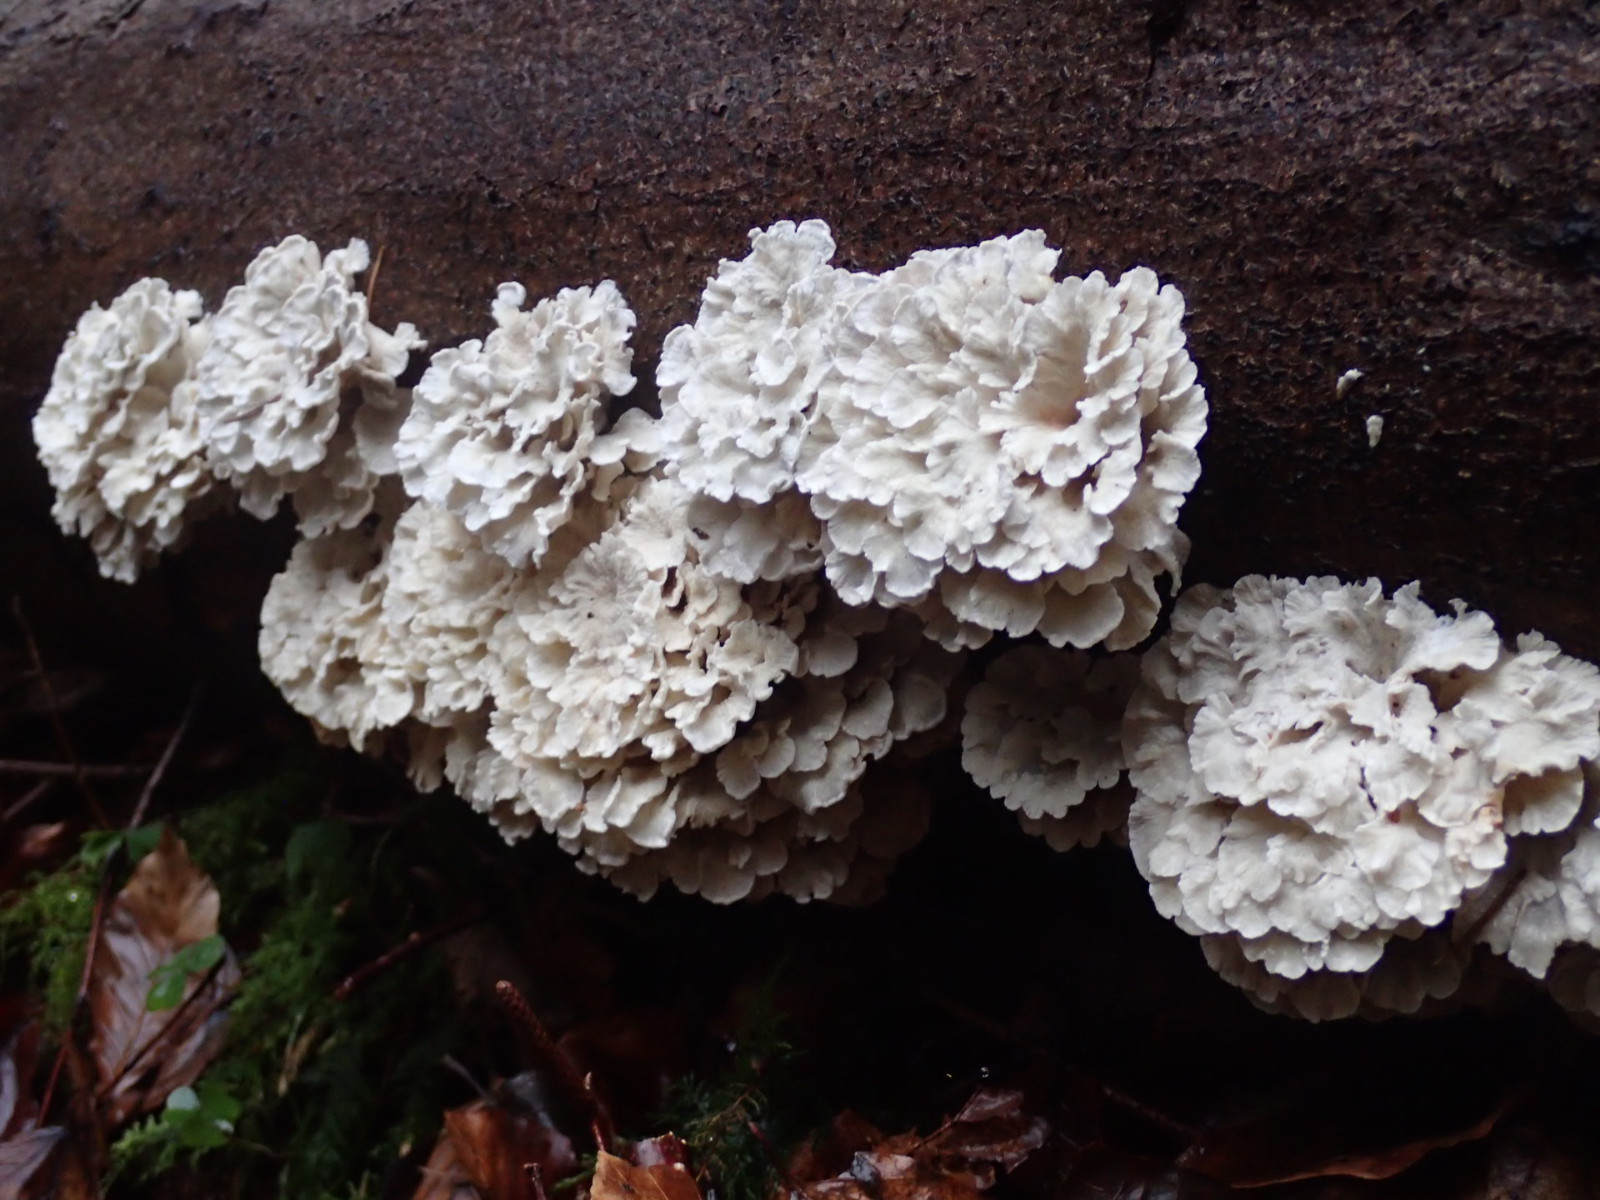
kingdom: Fungi
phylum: Basidiomycota
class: Agaricomycetes
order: Amylocorticiales
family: Amylocorticiaceae
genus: Plicaturopsis
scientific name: Plicaturopsis crispa
